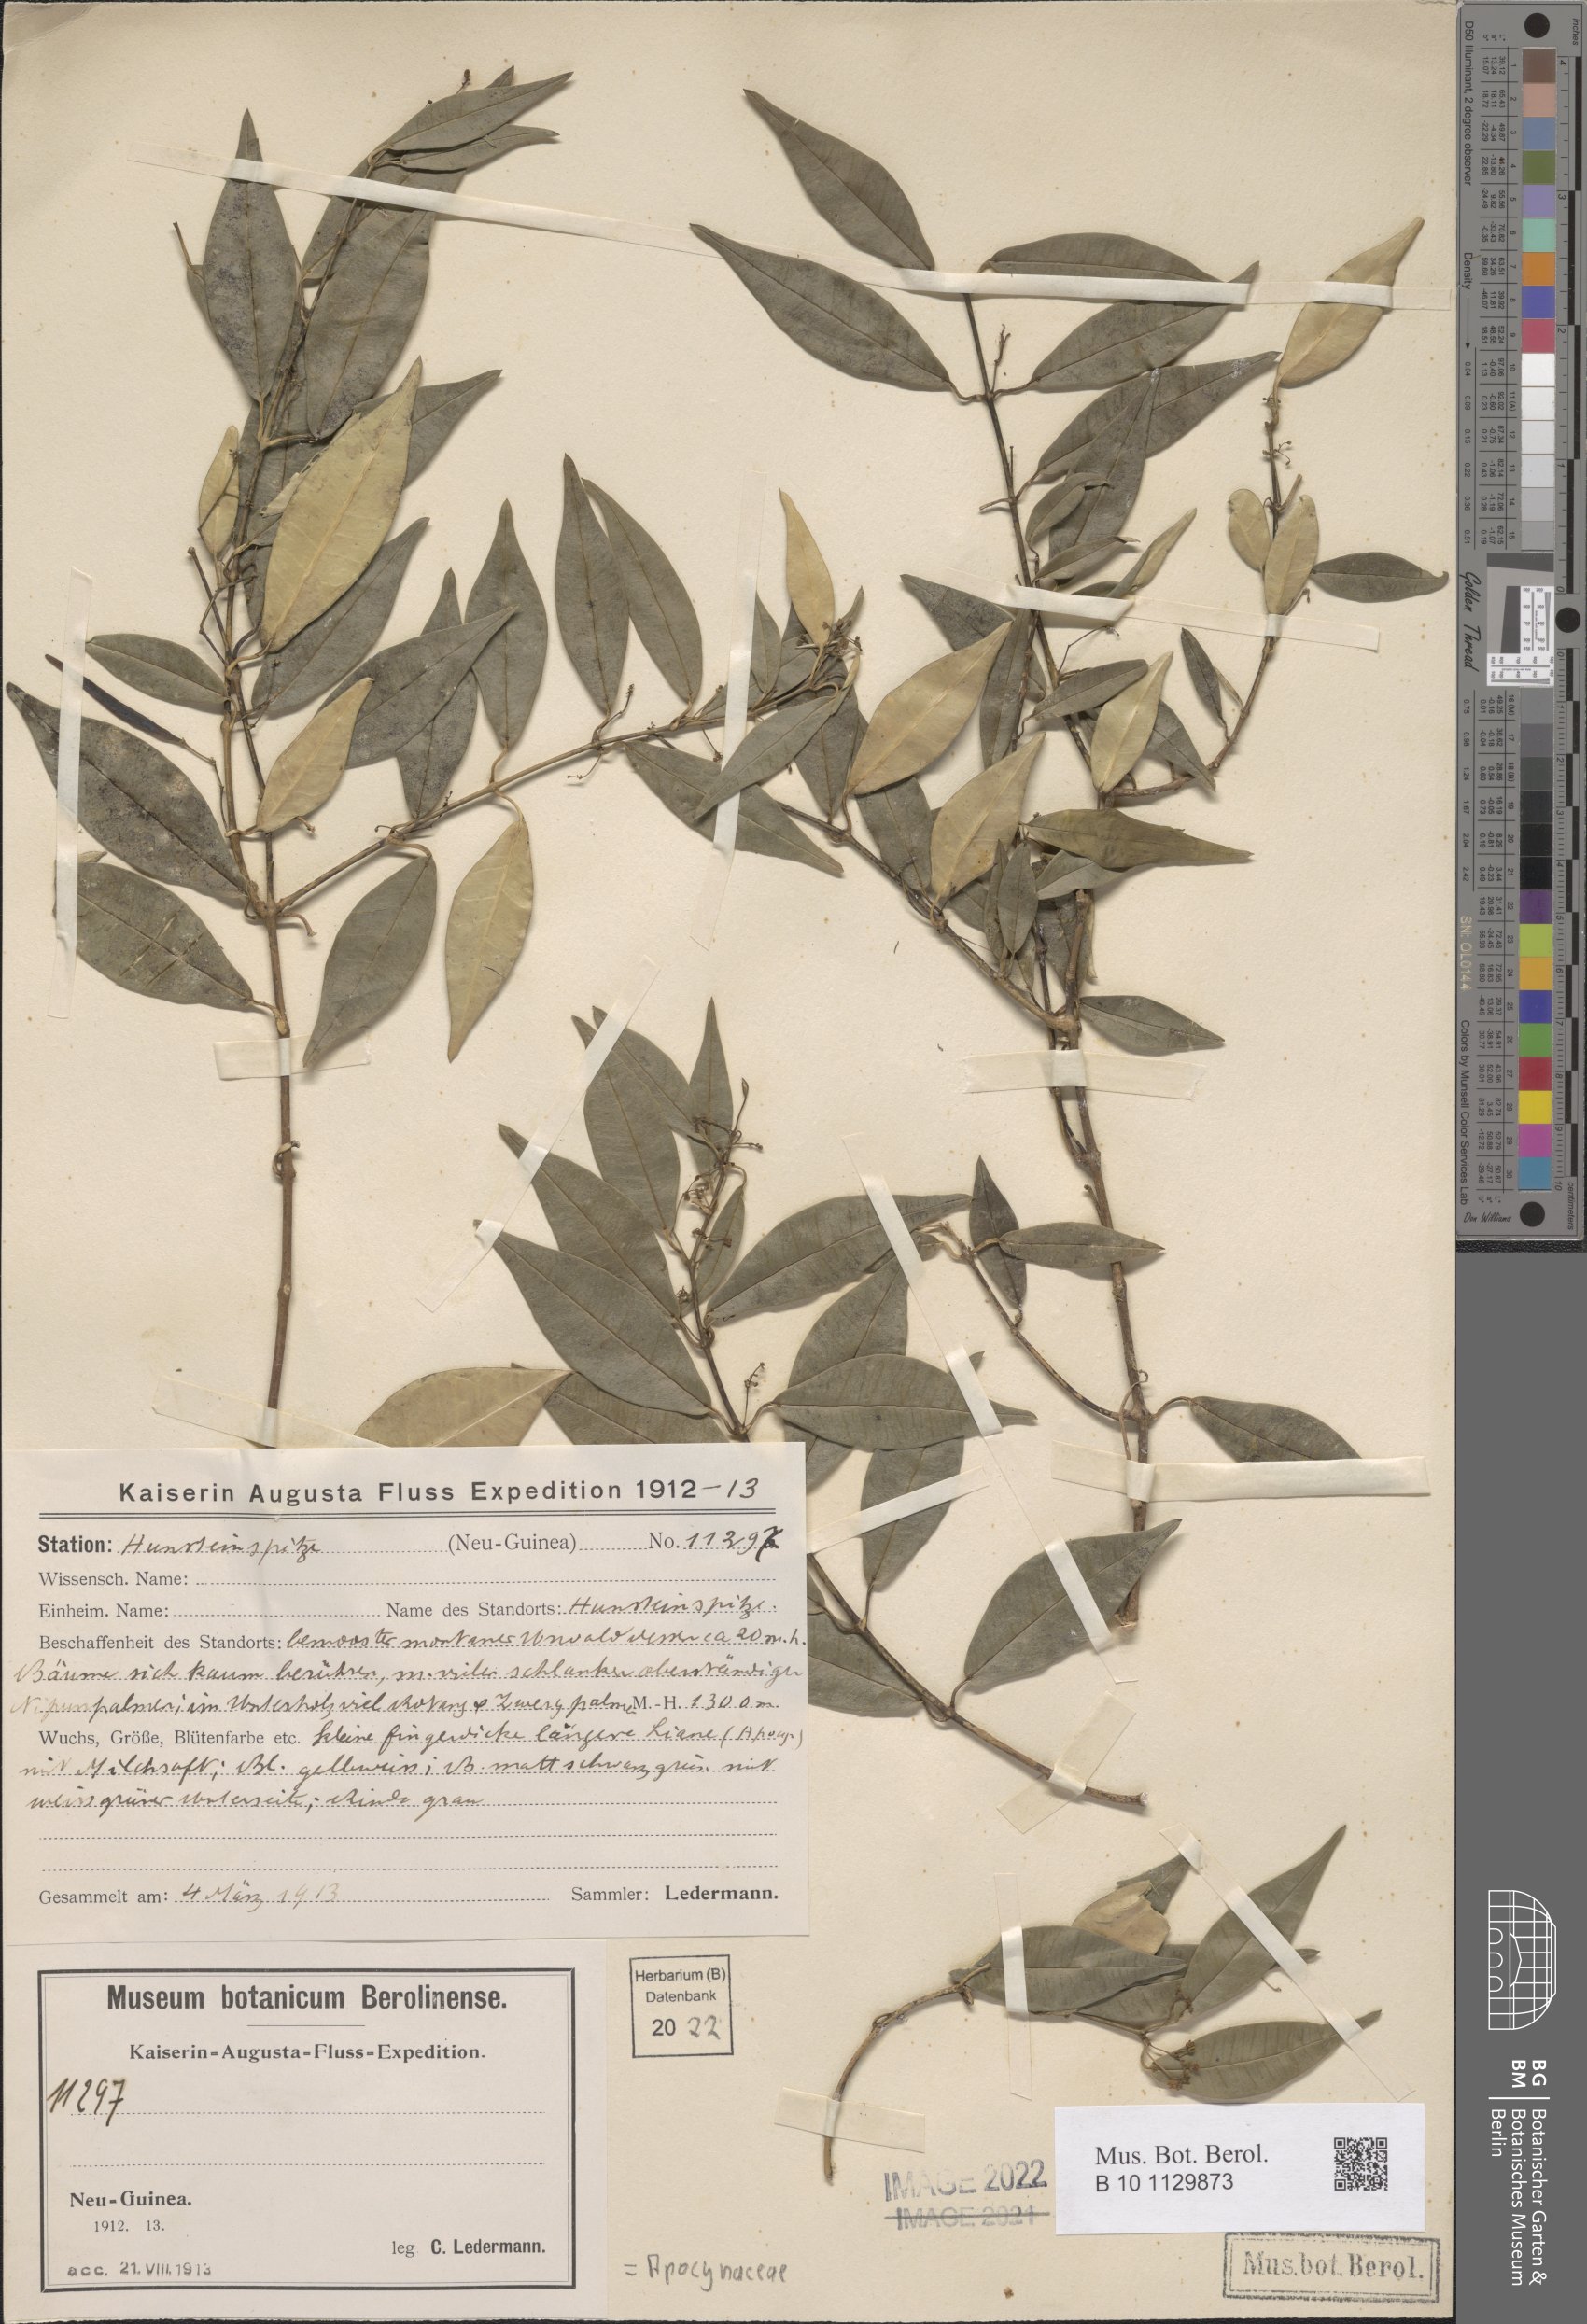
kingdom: Plantae
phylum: Tracheophyta
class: Magnoliopsida
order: Gentianales
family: Apocynaceae
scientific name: Apocynaceae
